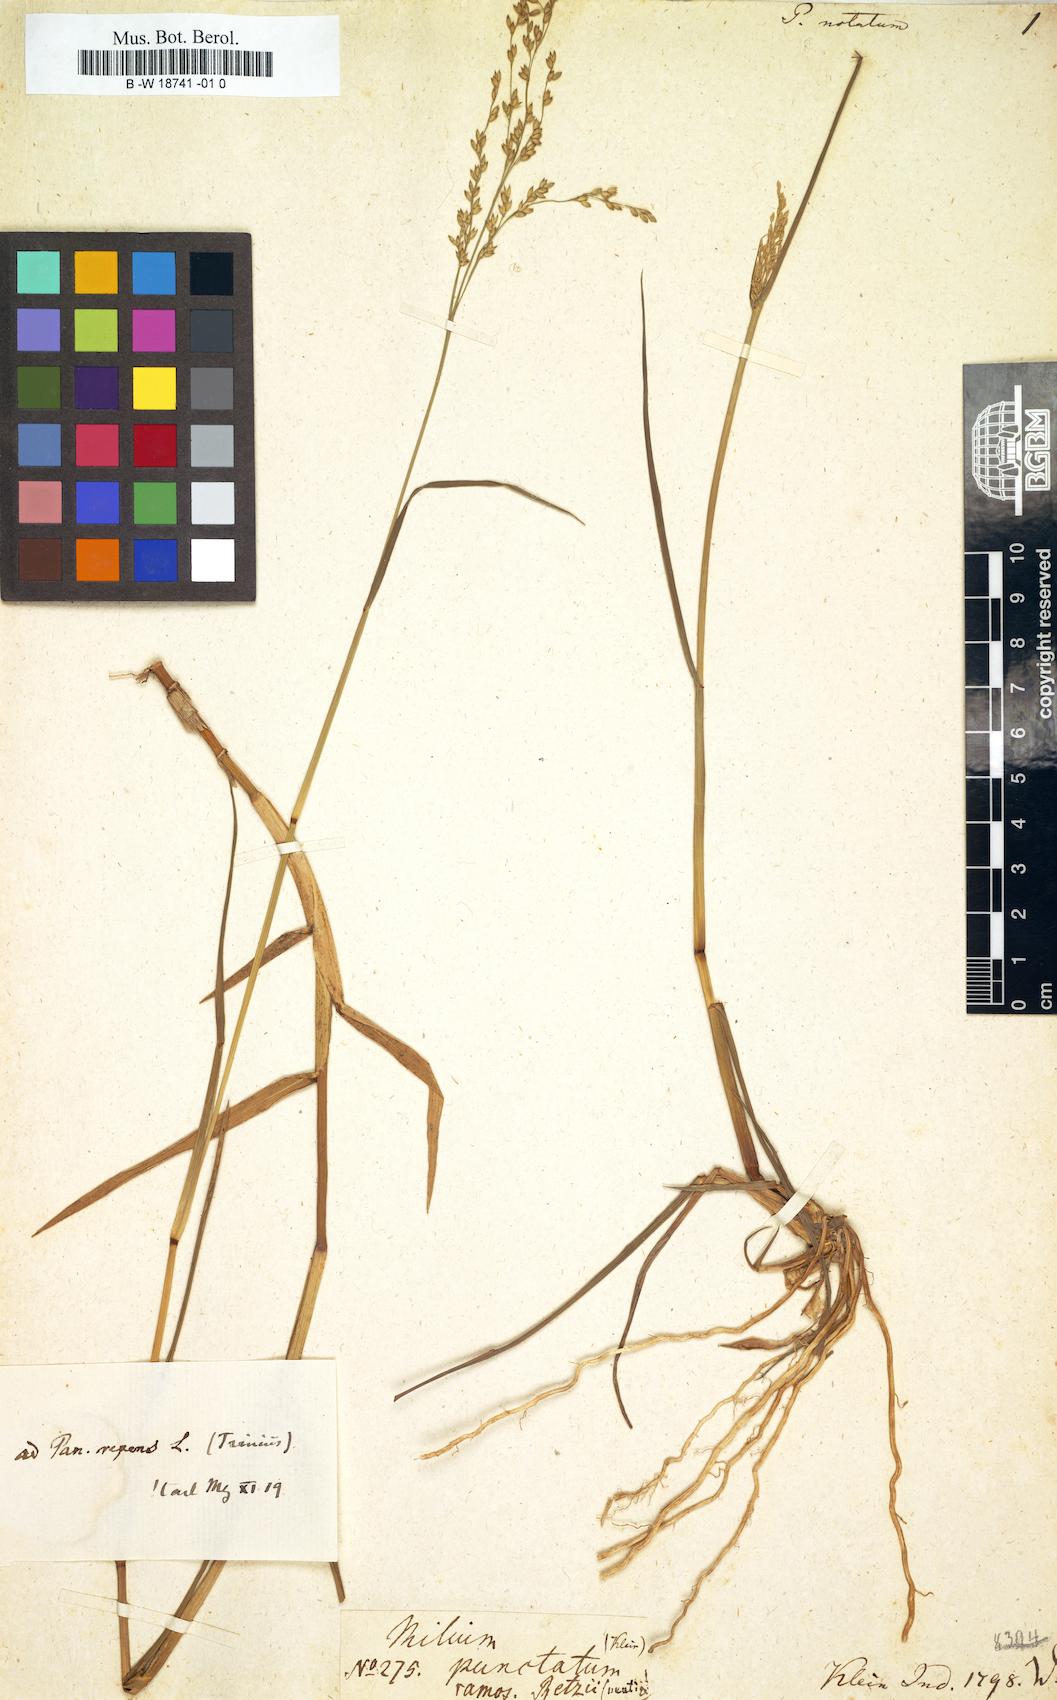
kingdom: Plantae
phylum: Tracheophyta
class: Liliopsida
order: Poales
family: Poaceae
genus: Panicum
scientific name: Panicum notatum
